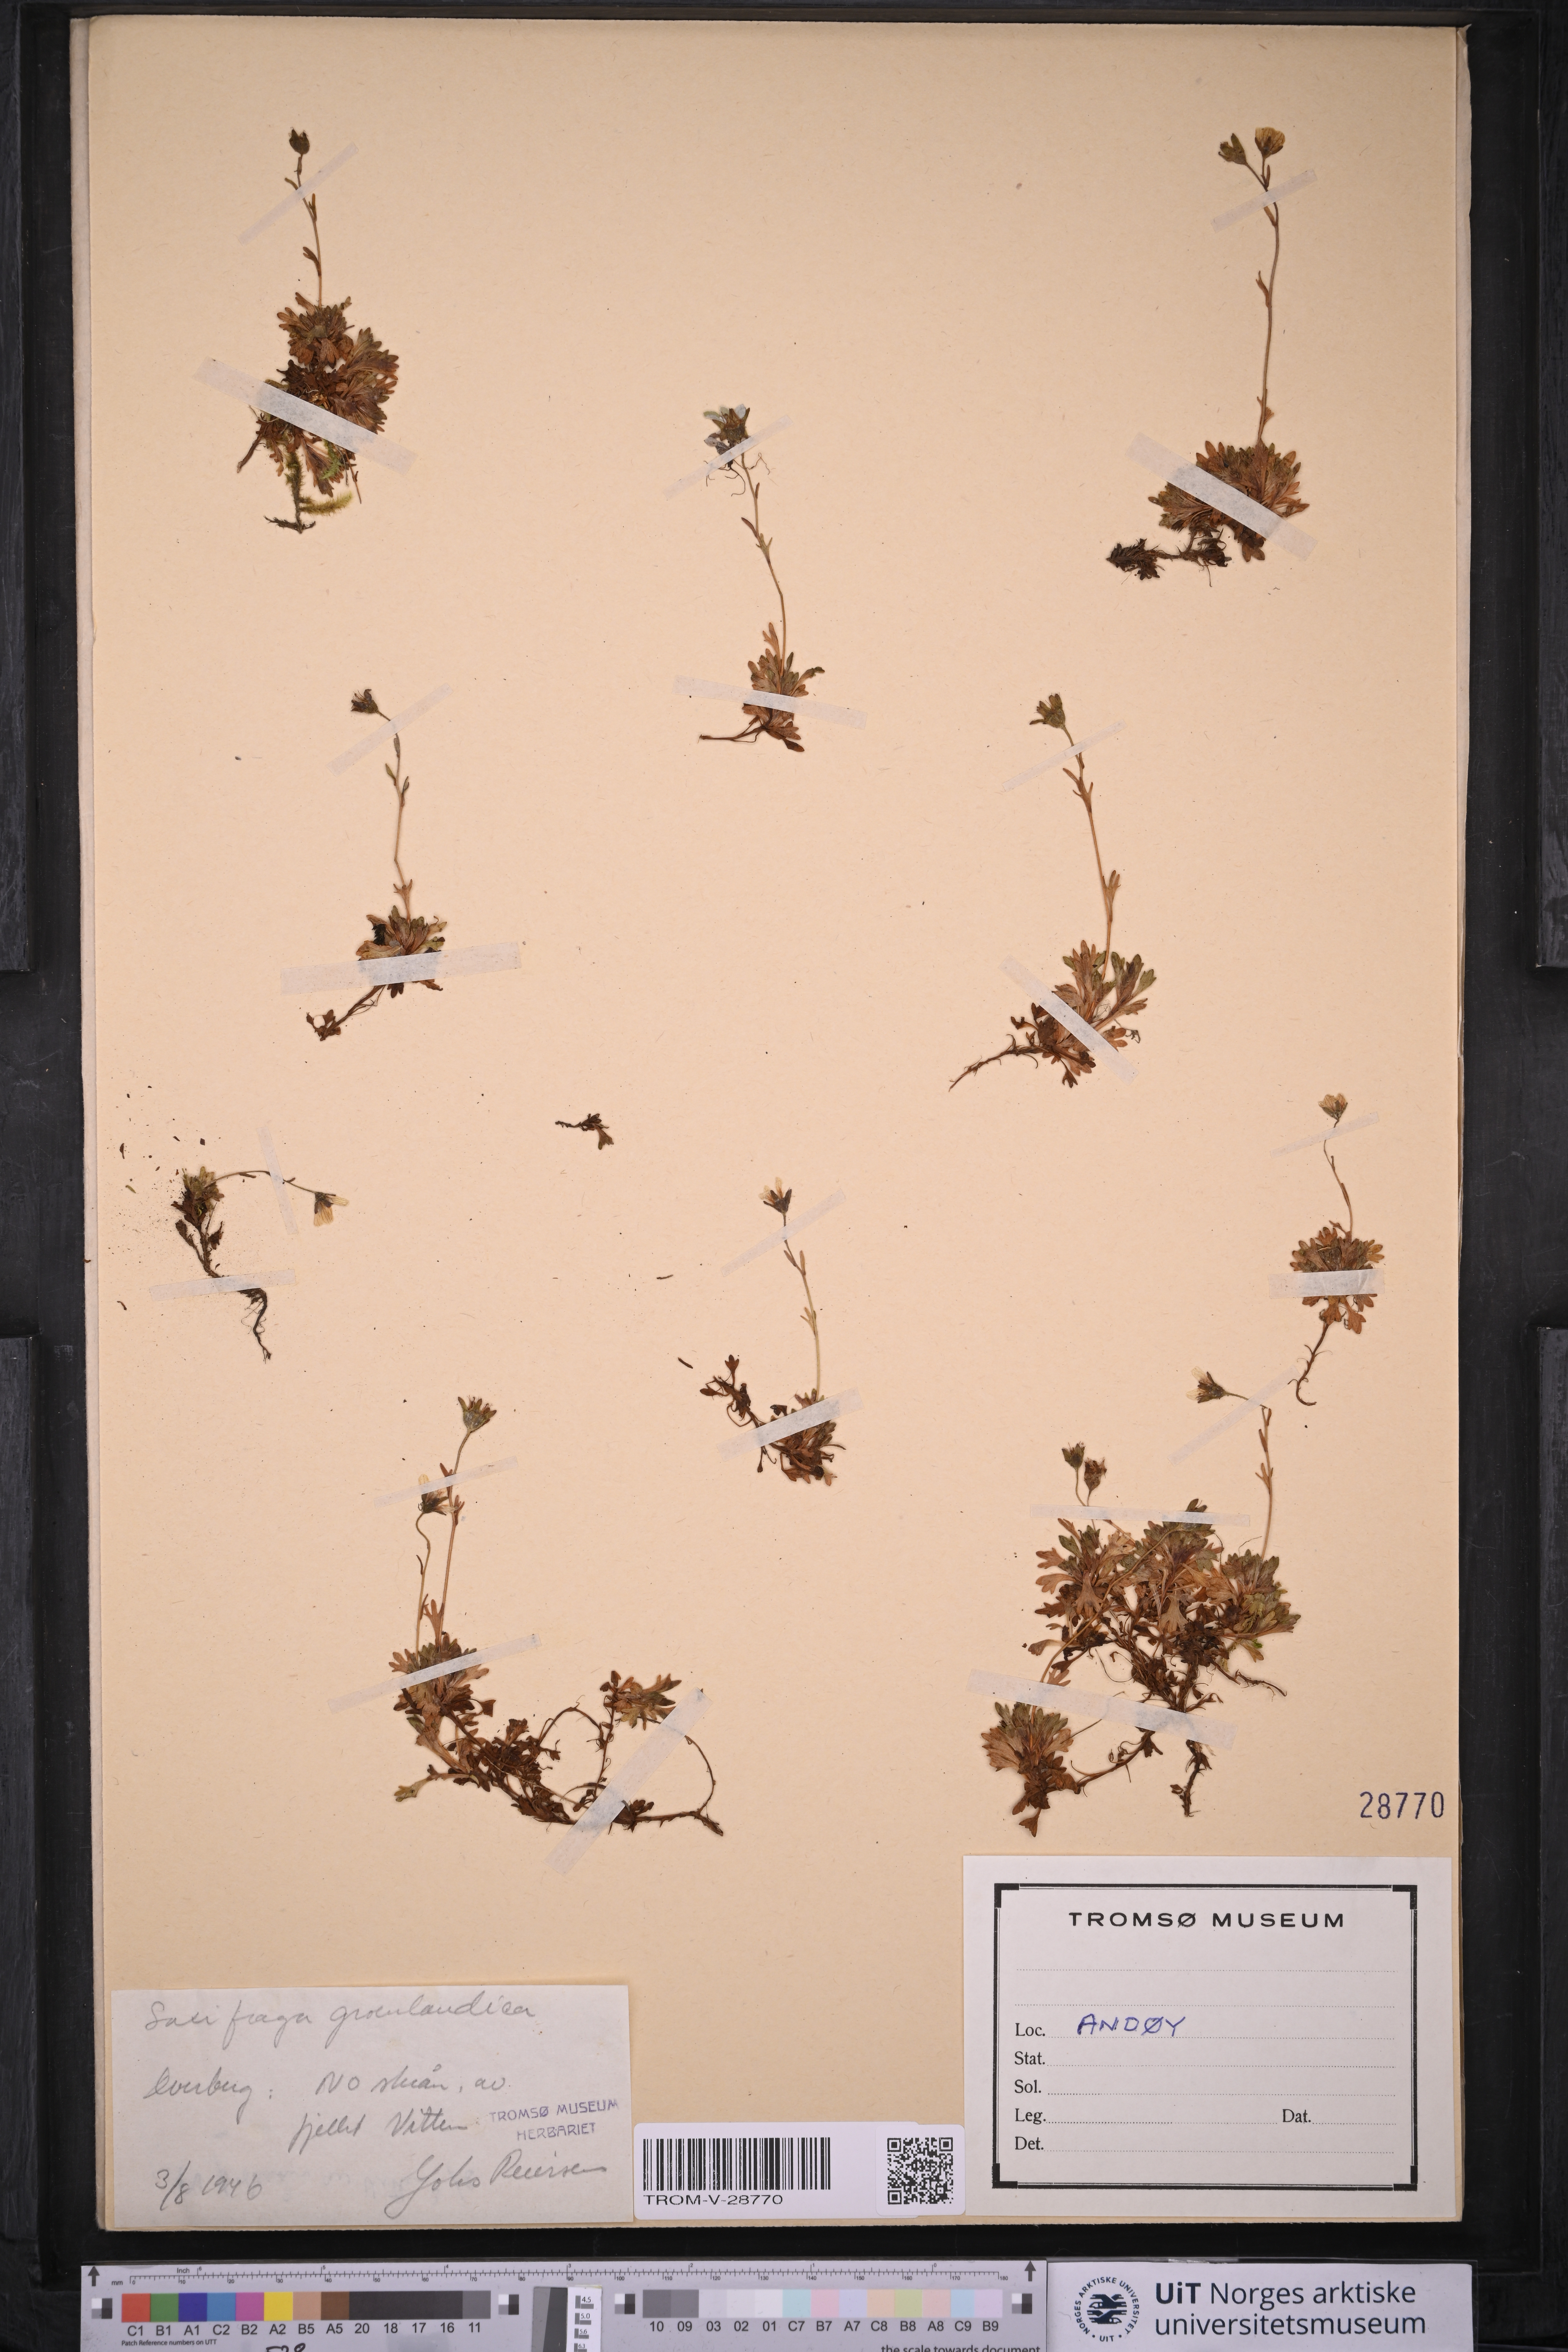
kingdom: Plantae
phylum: Tracheophyta
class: Magnoliopsida
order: Saxifragales
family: Saxifragaceae
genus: Saxifraga
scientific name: Saxifraga cespitosa
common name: Tufted saxifrage
